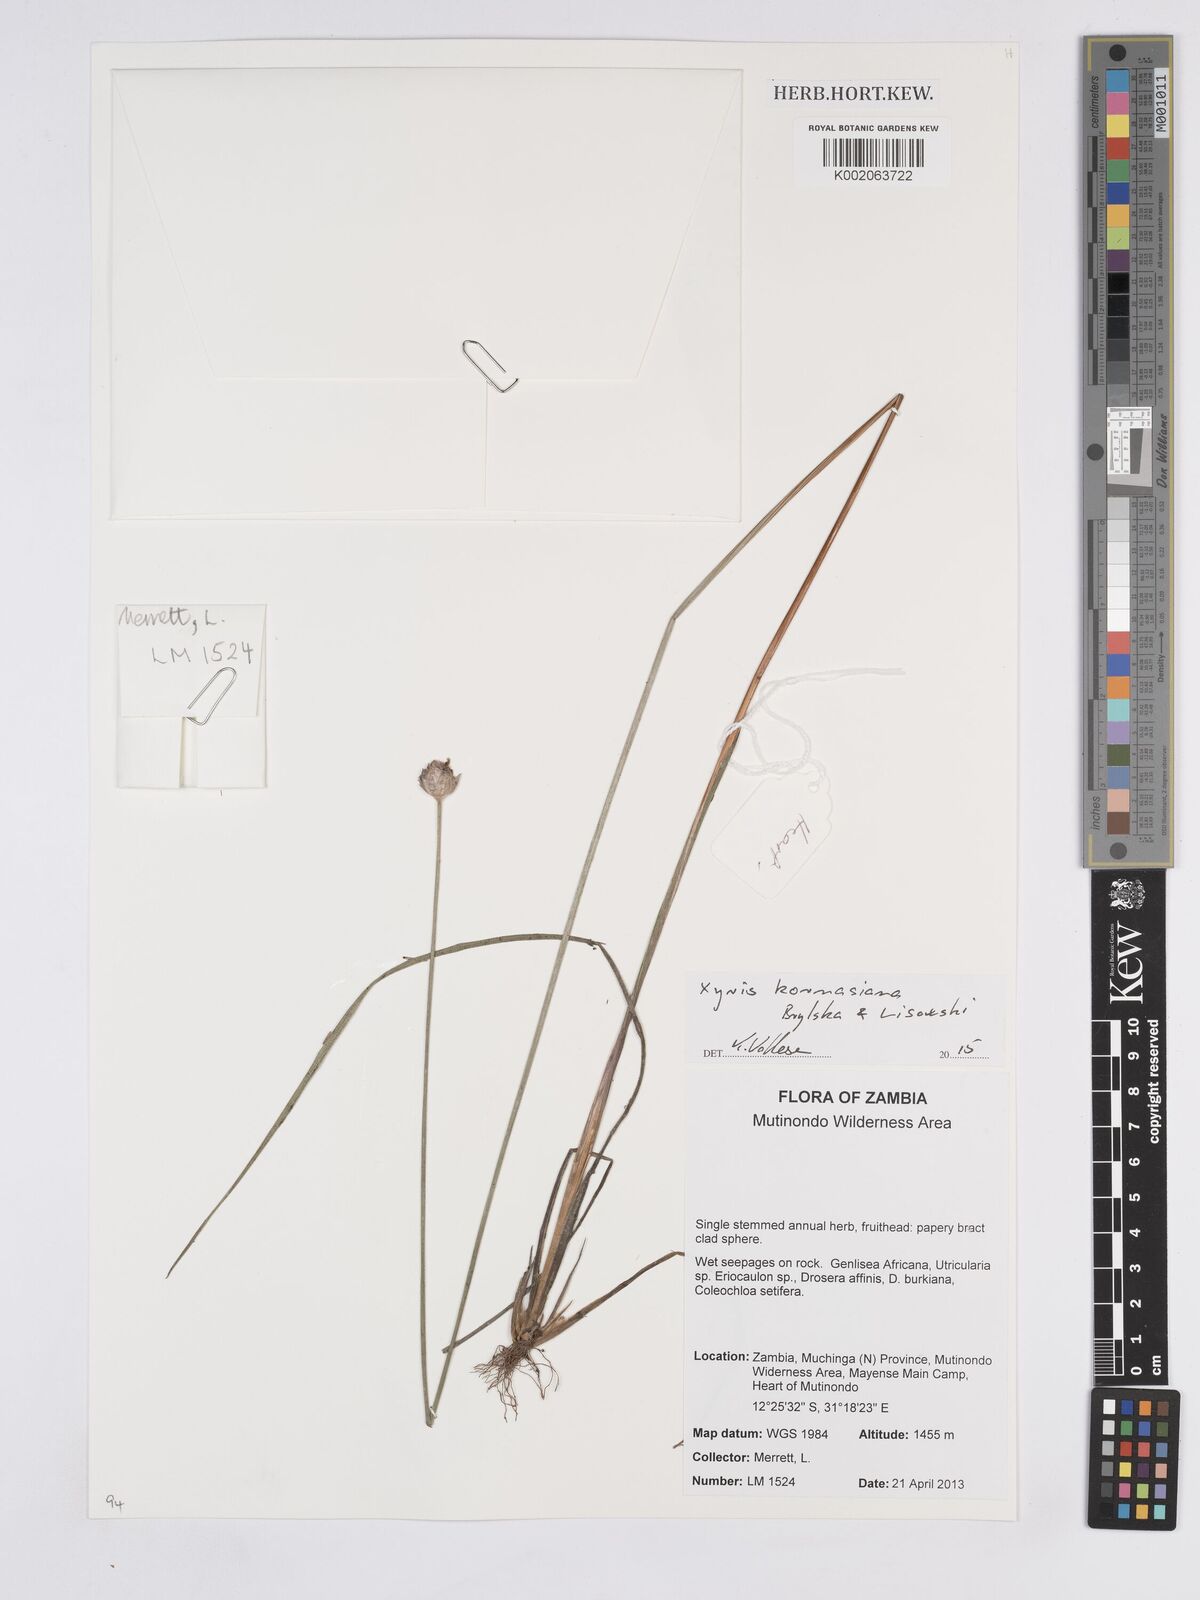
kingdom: Plantae
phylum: Tracheophyta
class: Liliopsida
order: Poales
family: Xyridaceae
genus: Xyris
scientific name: Xyris kornasiana
